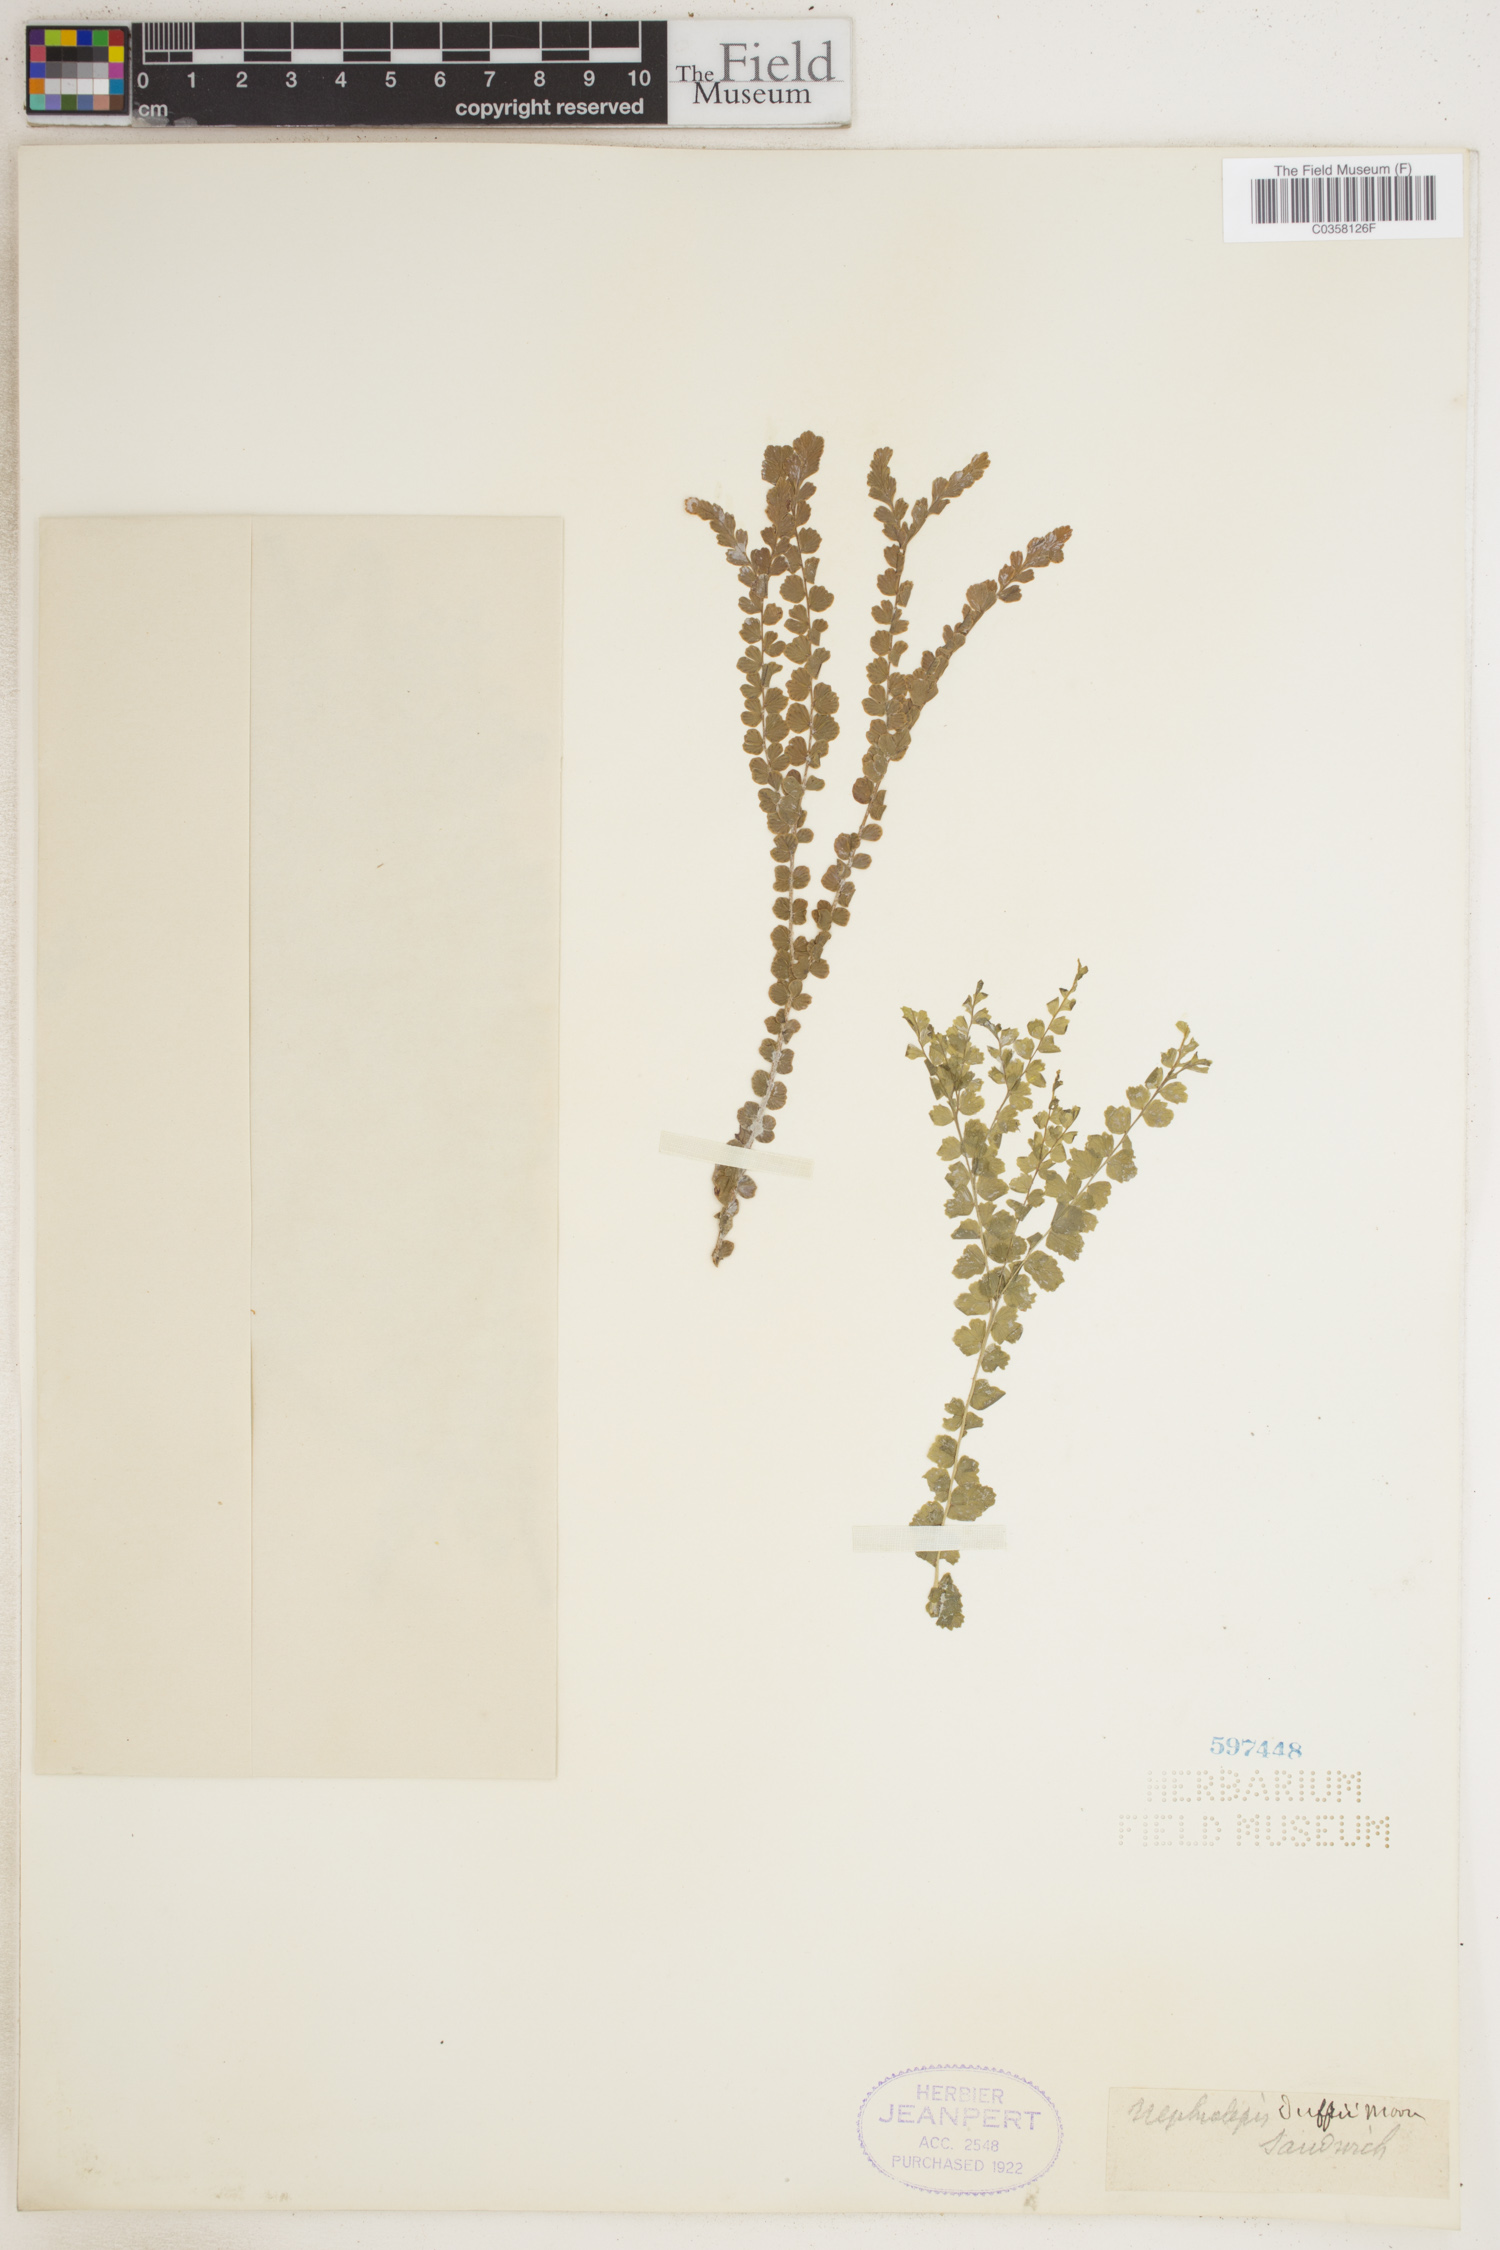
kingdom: Plantae
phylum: Tracheophyta
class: Polypodiopsida
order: Polypodiales
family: Nephrolepidaceae
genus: Nephrolepis
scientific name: Nephrolepis hirsutula
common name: Asian sword fern
